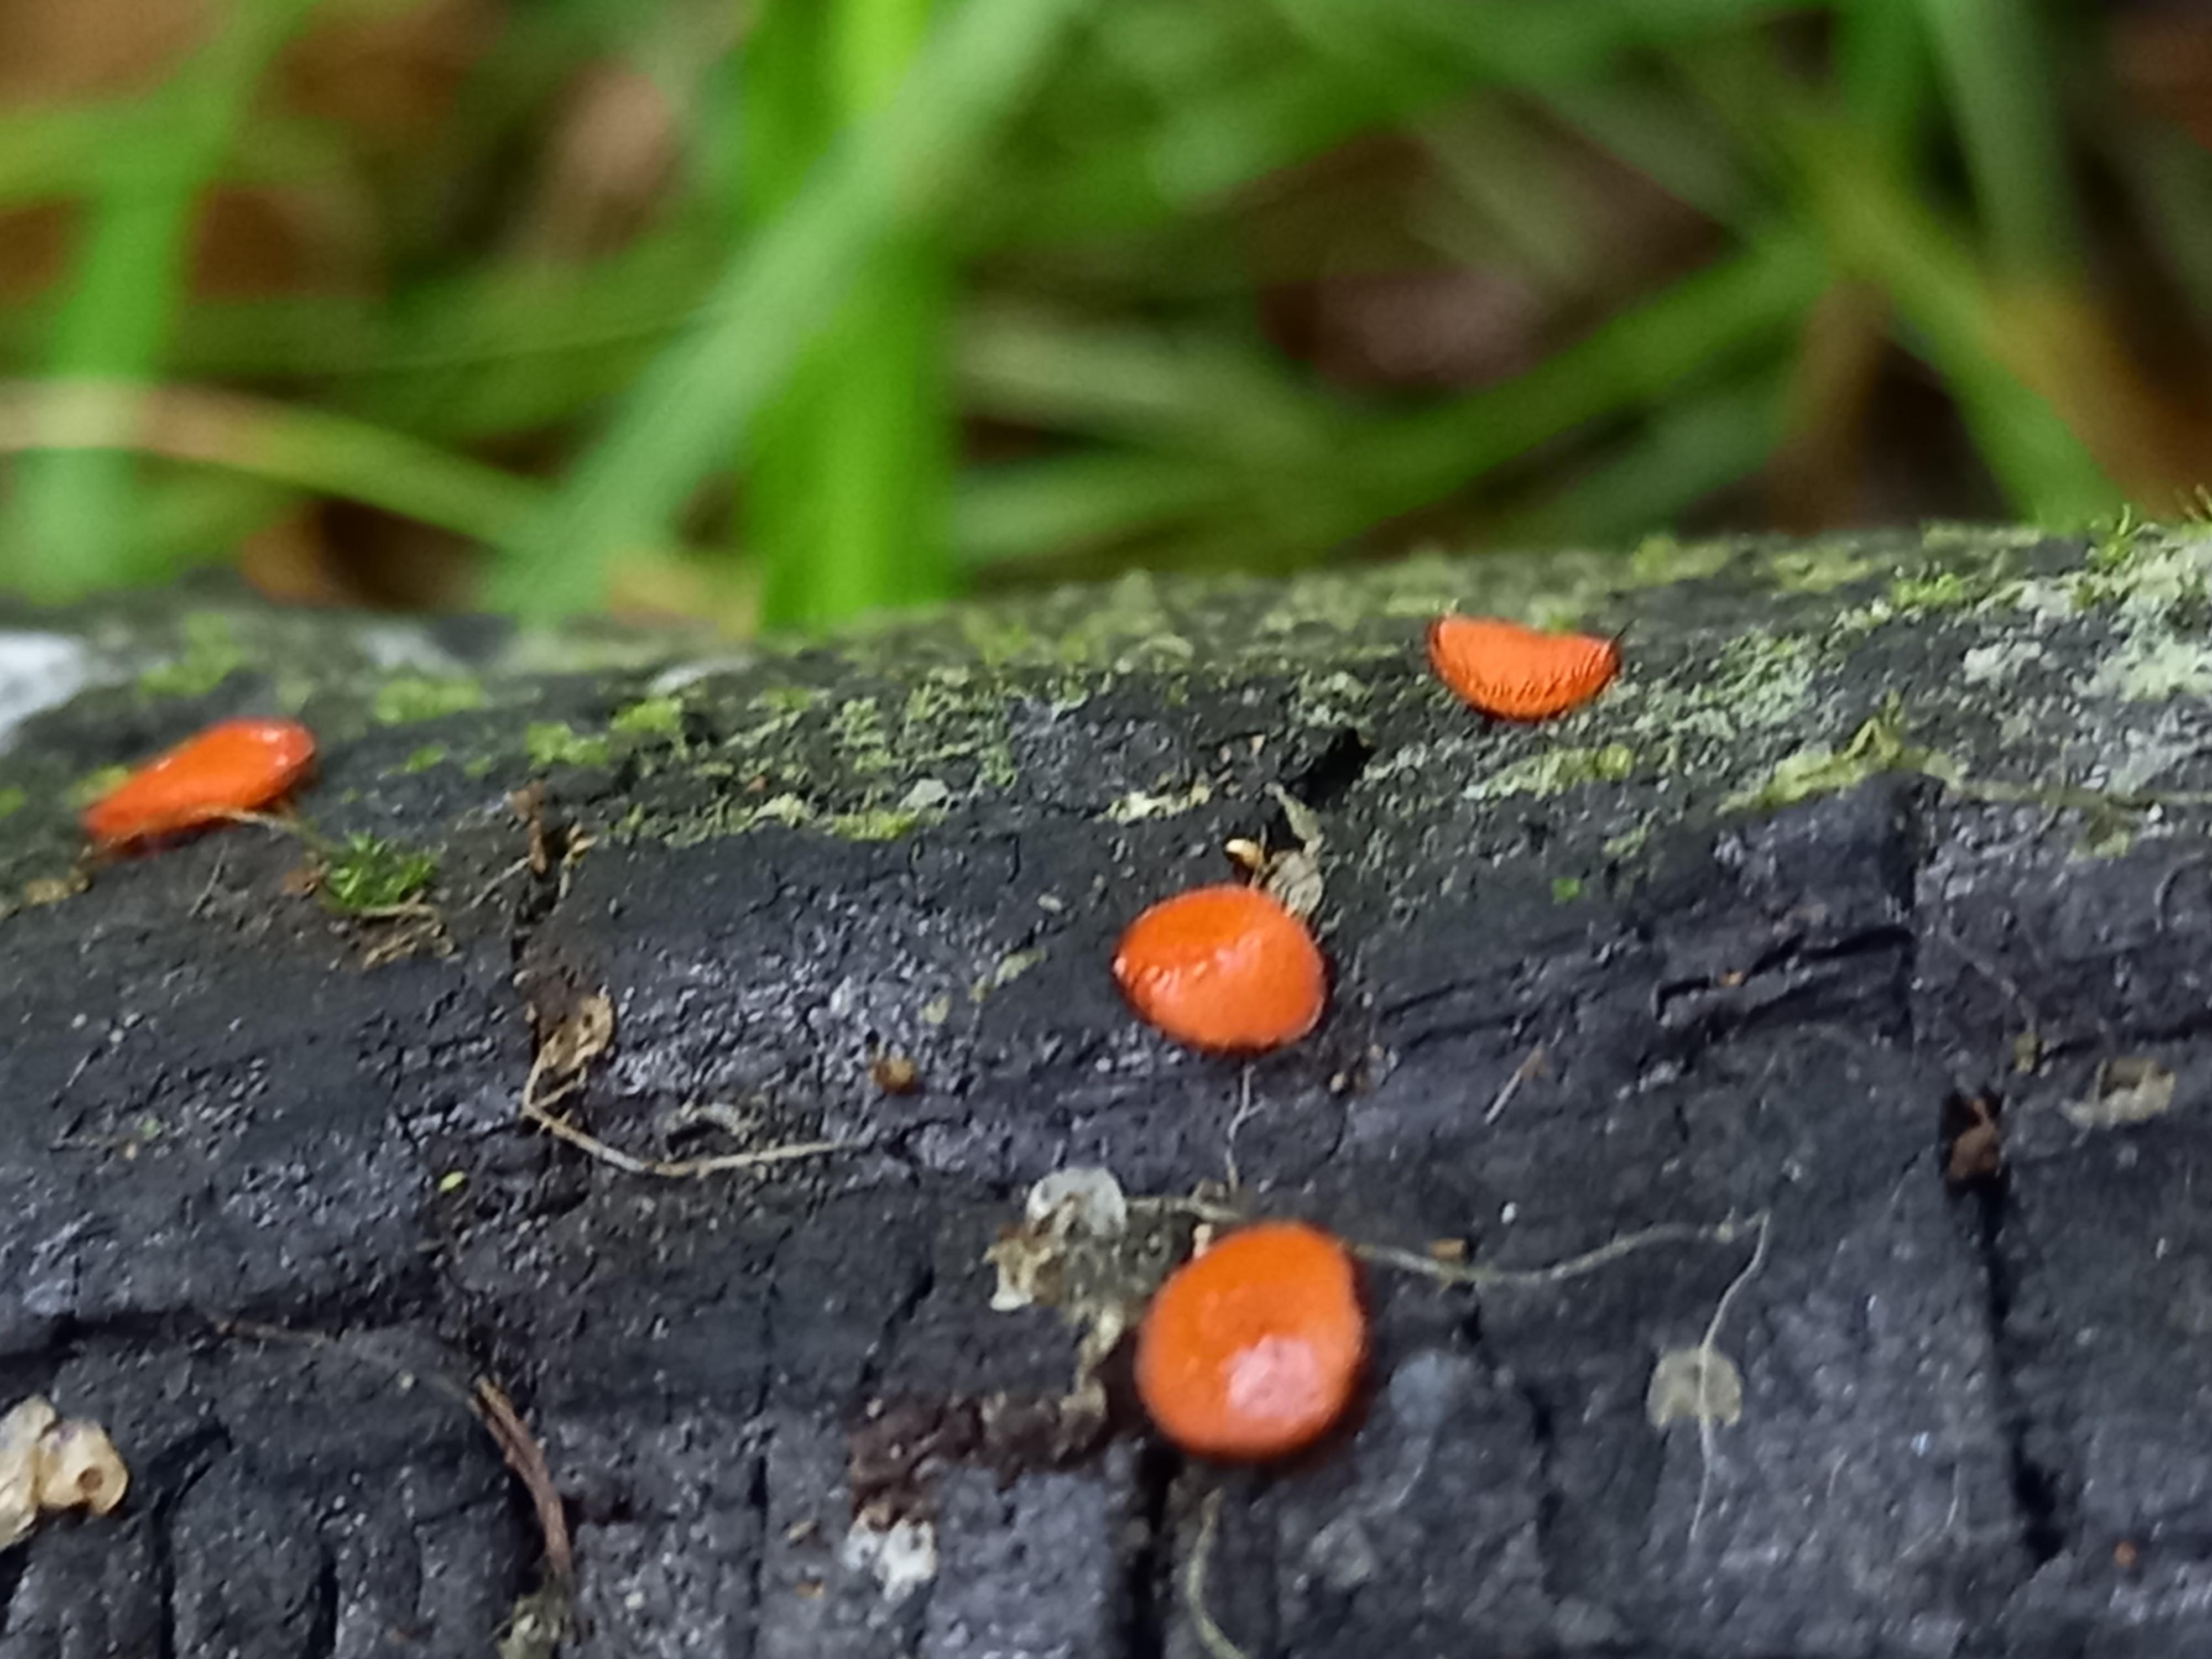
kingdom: Fungi
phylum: Ascomycota
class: Pezizomycetes
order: Pezizales
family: Pyronemataceae
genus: Scutellinia
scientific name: Scutellinia
